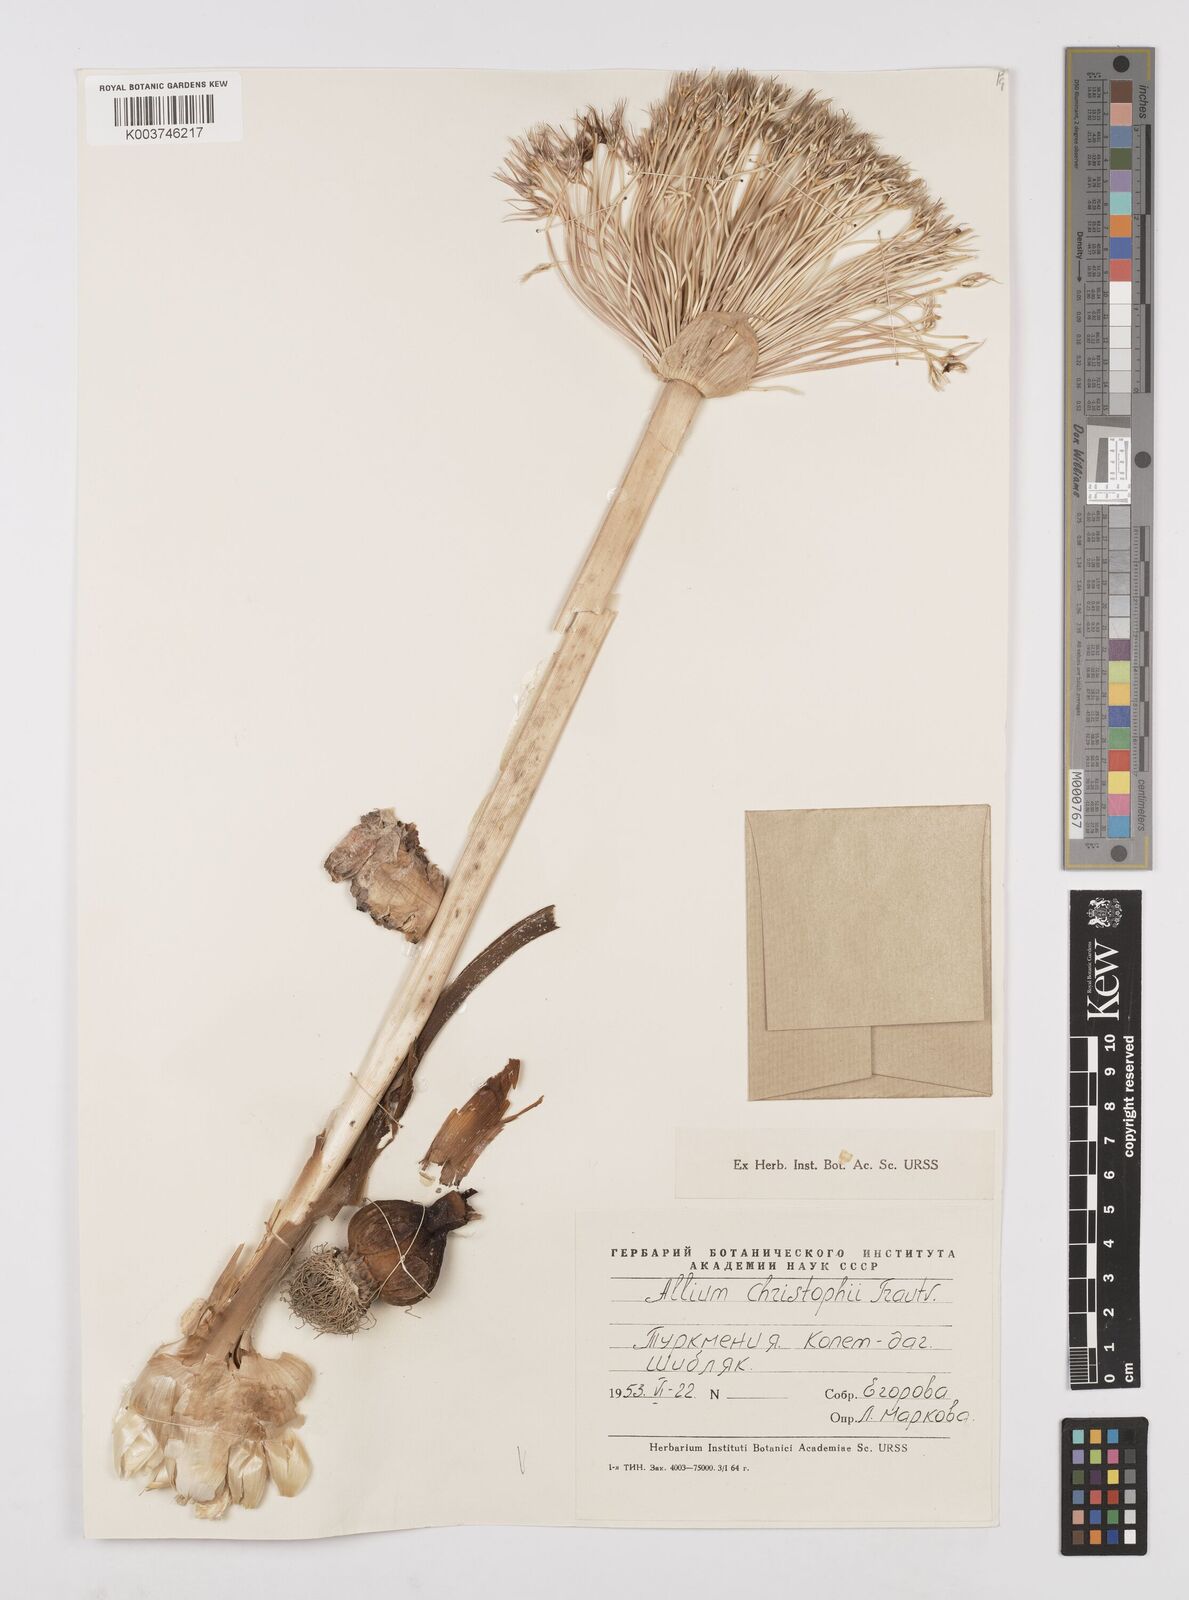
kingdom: Plantae
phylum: Tracheophyta
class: Liliopsida
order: Asparagales
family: Amaryllidaceae
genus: Allium
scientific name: Allium cristophii
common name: Persian onion
